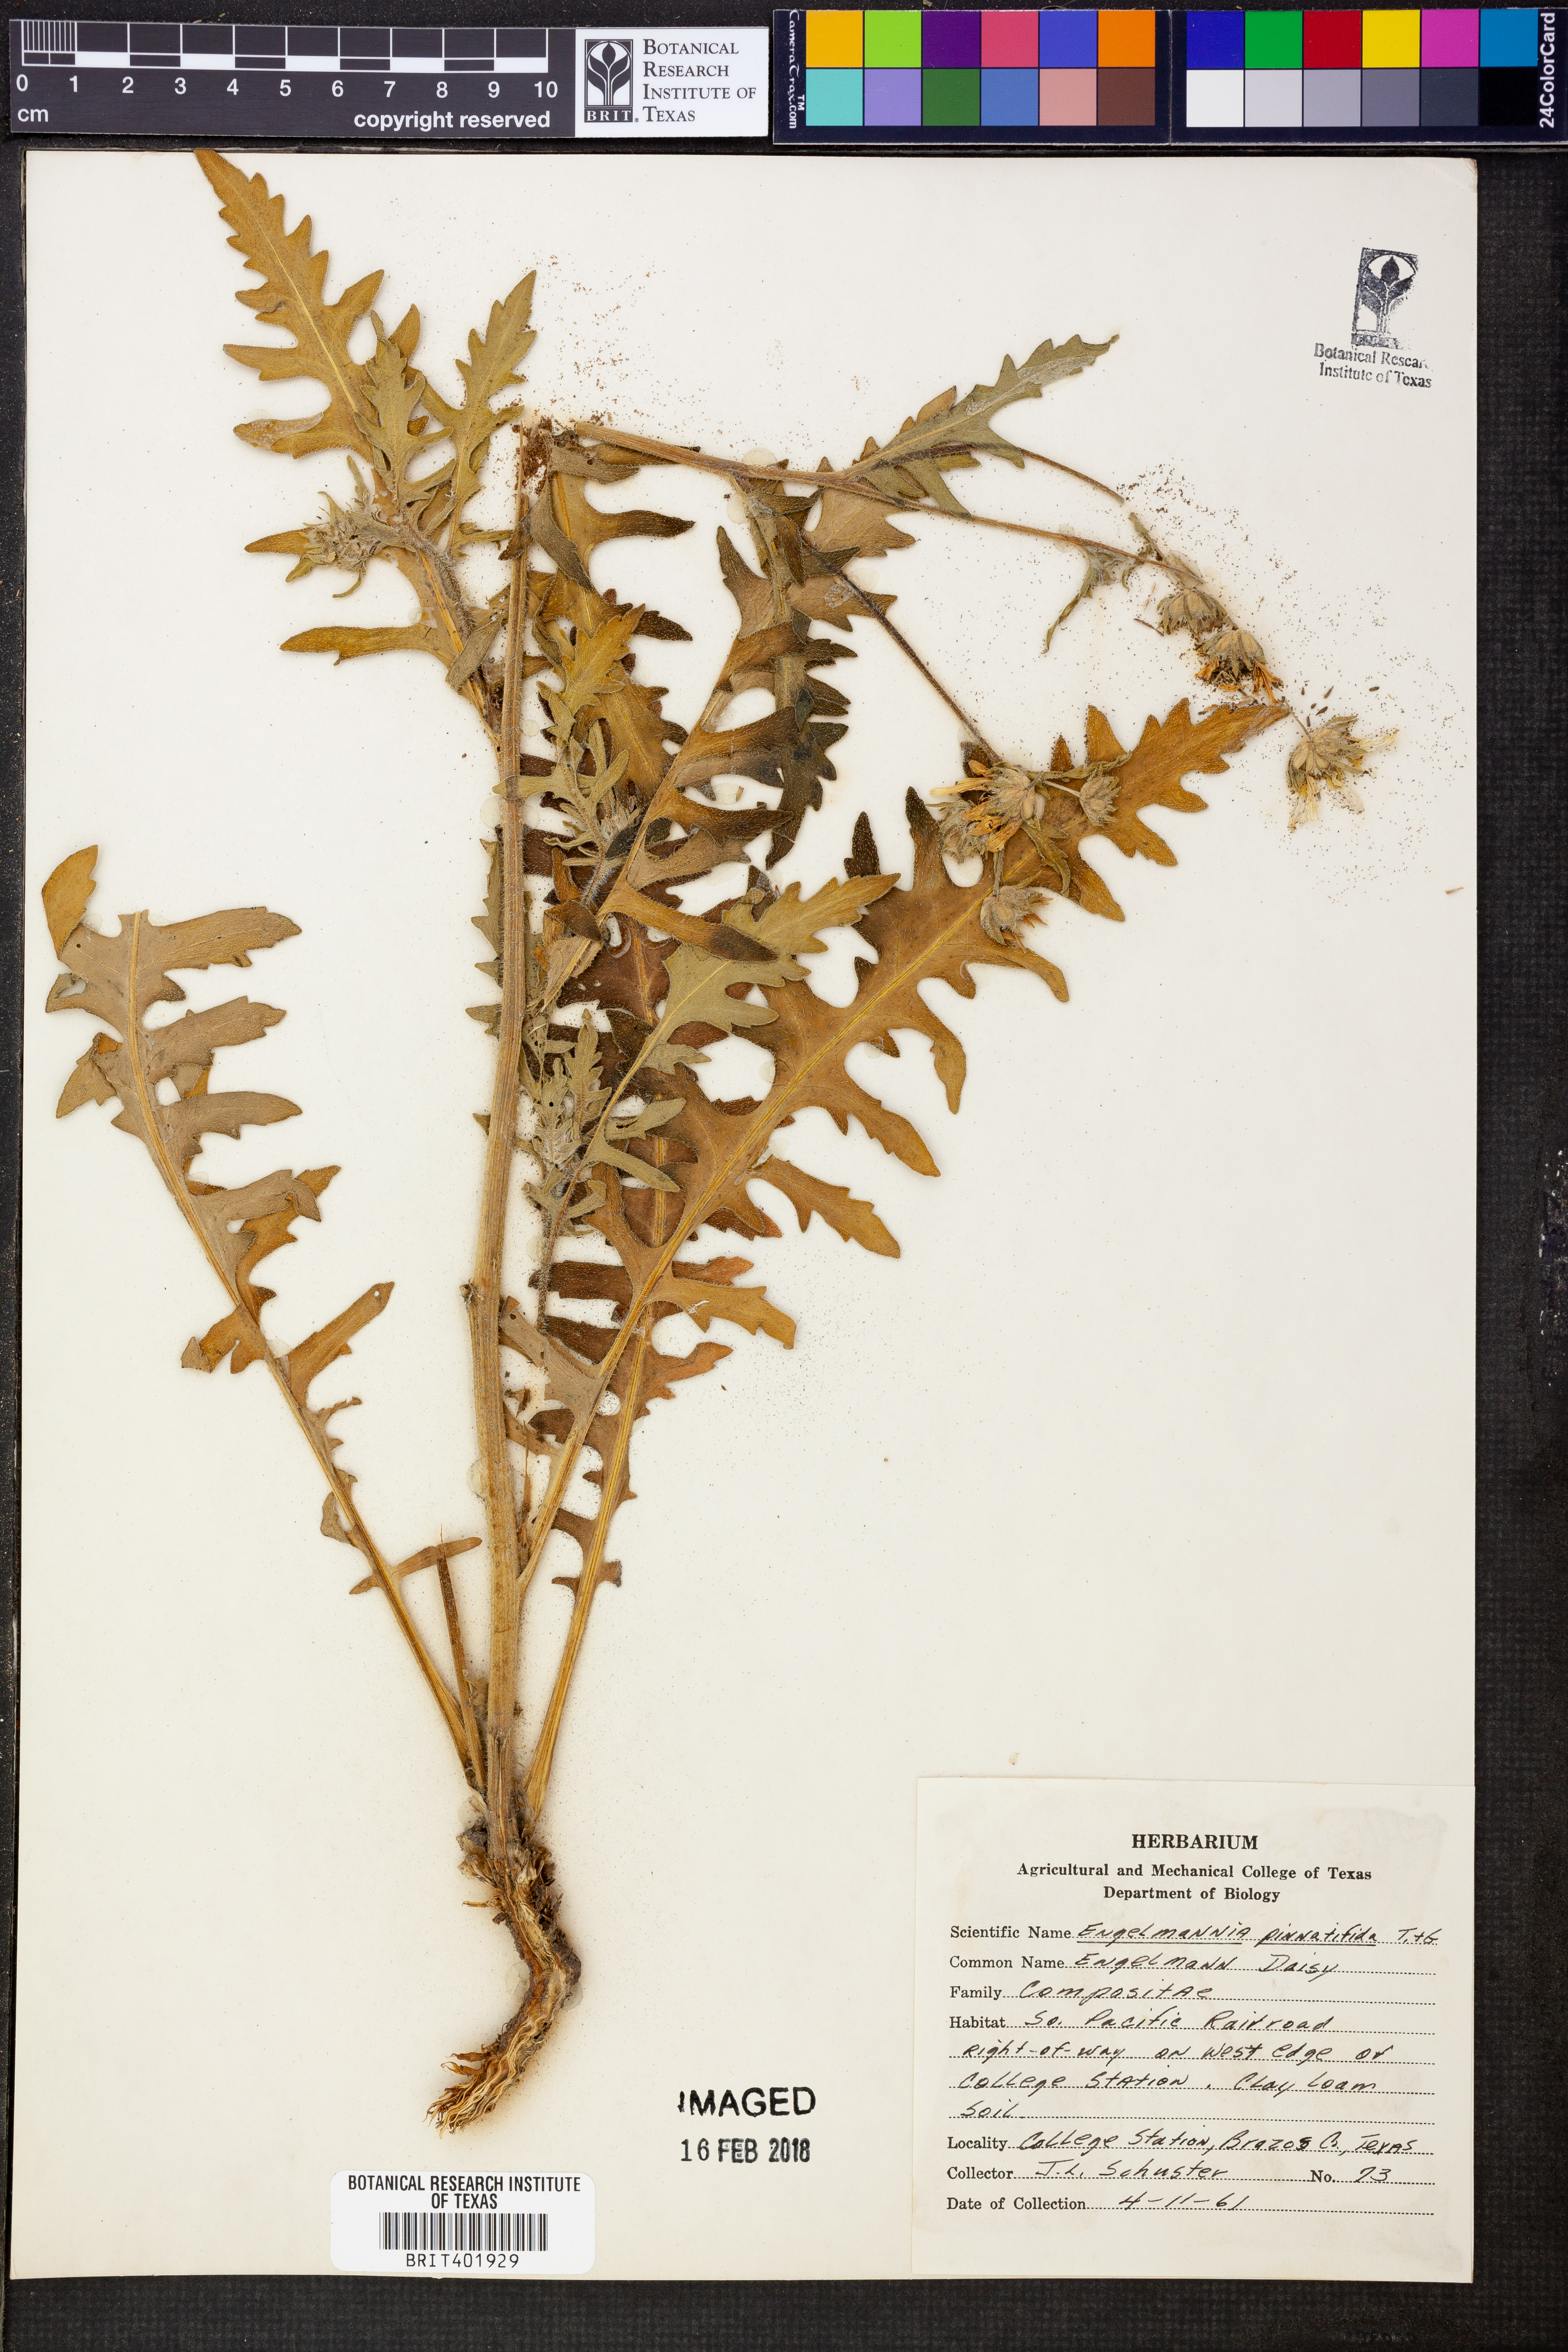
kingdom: Plantae
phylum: Tracheophyta
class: Magnoliopsida
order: Asterales
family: Asteraceae
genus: Engelmannia
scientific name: Engelmannia peristenia
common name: Engelmann's daisy
